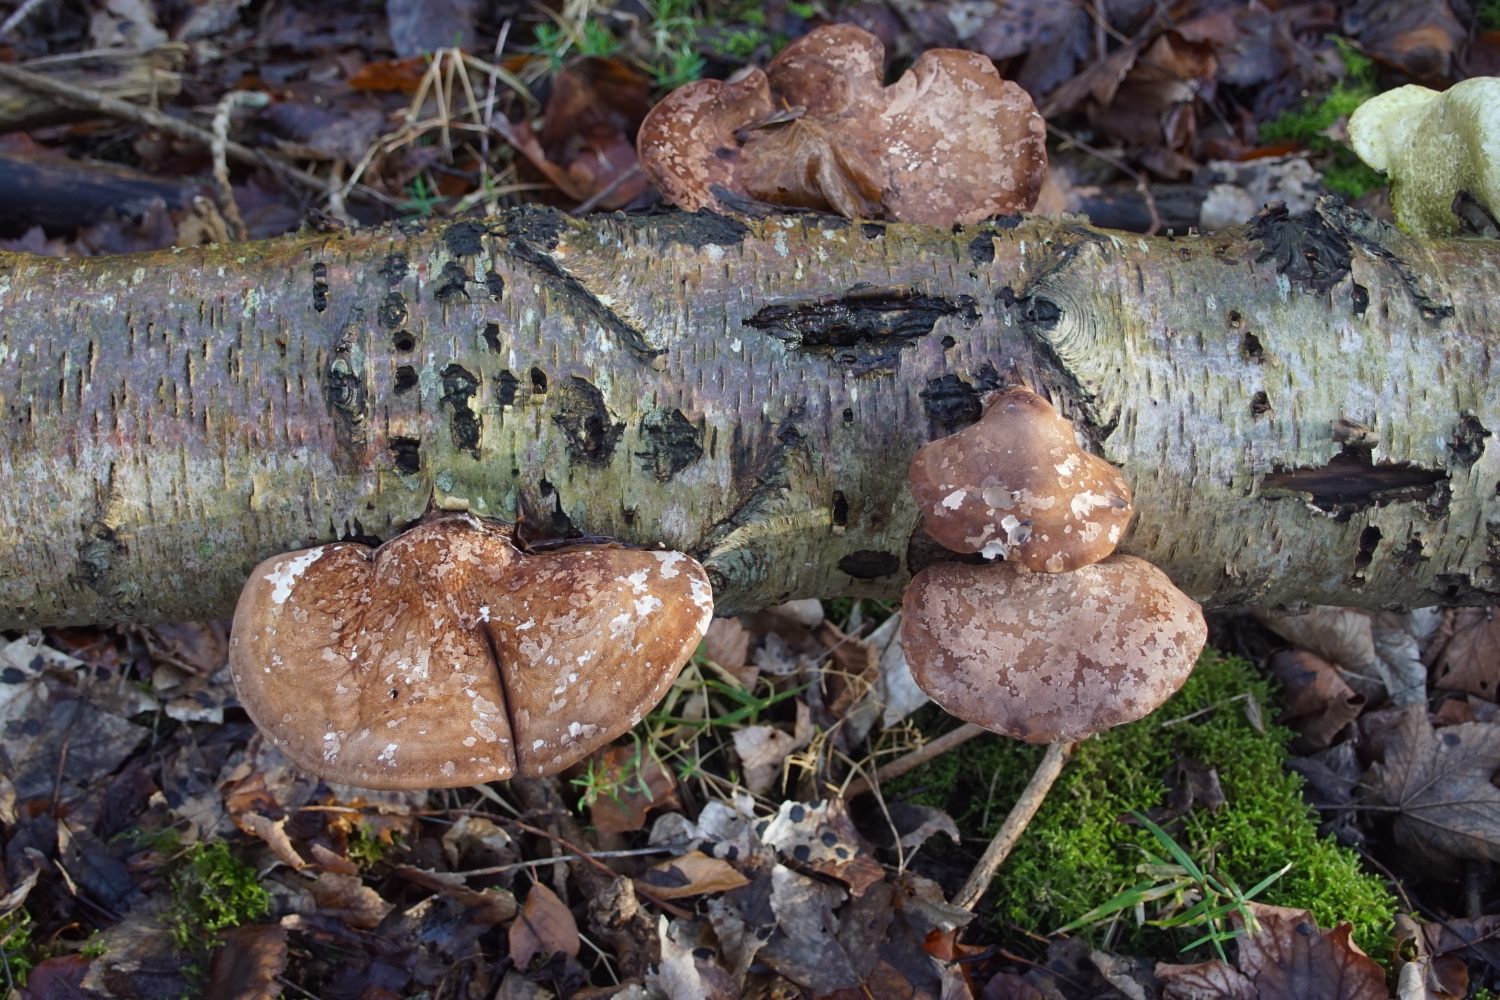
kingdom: Fungi
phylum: Basidiomycota
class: Agaricomycetes
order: Polyporales
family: Fomitopsidaceae
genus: Fomitopsis
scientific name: Fomitopsis betulina
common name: birkeporesvamp
